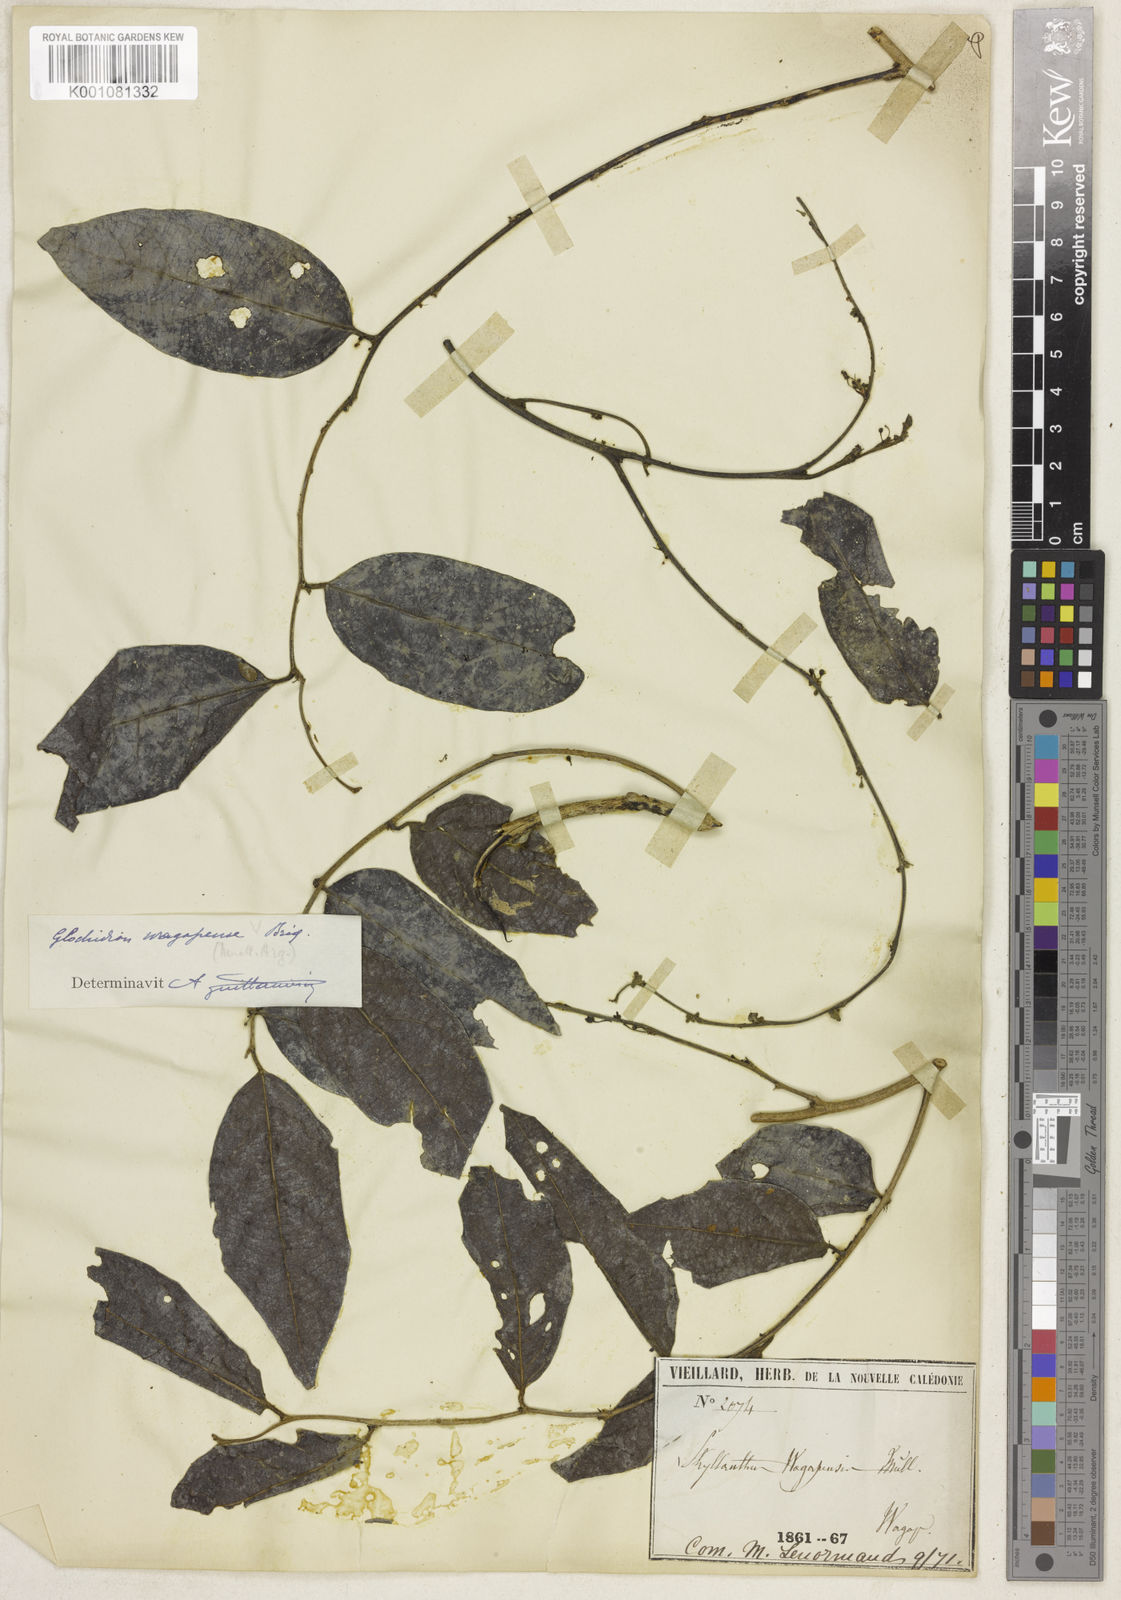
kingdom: Plantae
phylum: Tracheophyta
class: Magnoliopsida
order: Malpighiales
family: Phyllanthaceae
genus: Glochidion
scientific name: Glochidion
